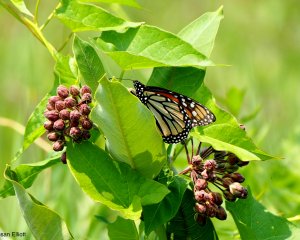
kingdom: Animalia
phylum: Arthropoda
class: Insecta
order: Lepidoptera
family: Nymphalidae
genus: Danaus
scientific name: Danaus plexippus
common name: Monarch
